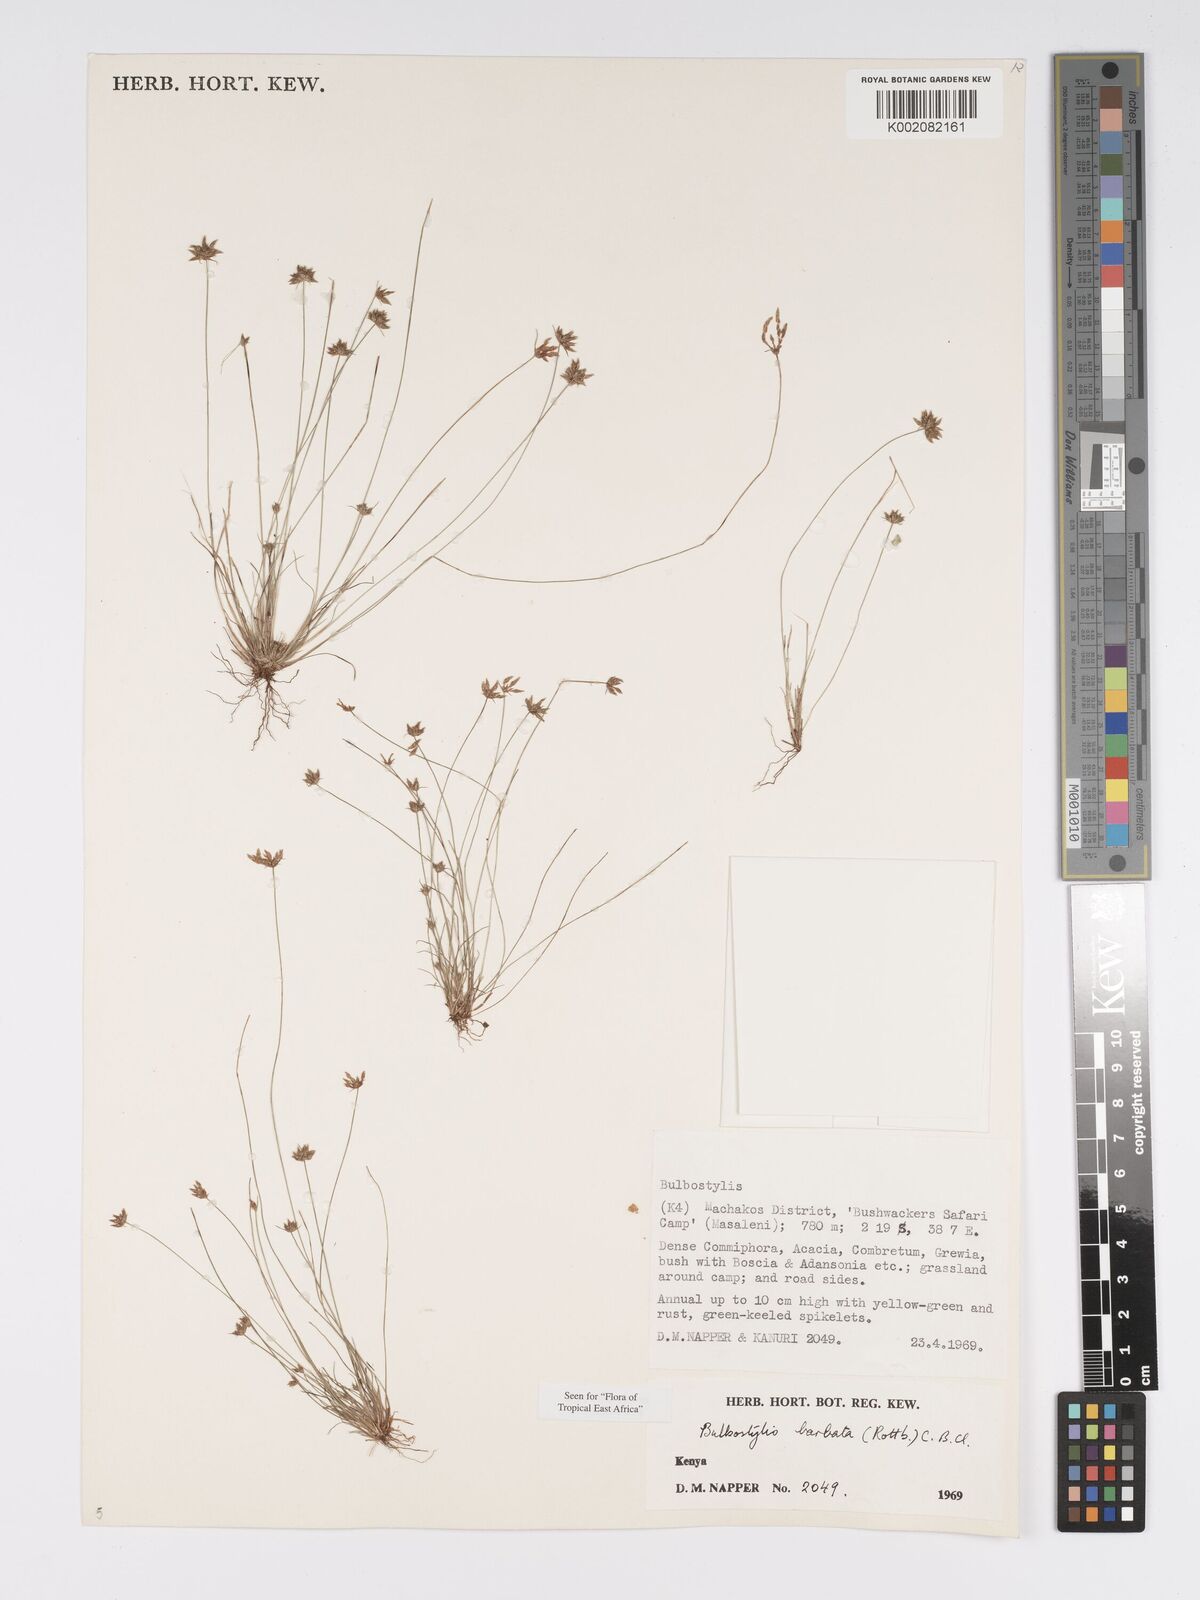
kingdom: Plantae
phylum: Tracheophyta
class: Liliopsida
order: Poales
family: Cyperaceae
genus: Bulbostylis
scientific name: Bulbostylis barbata
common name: Watergrass
